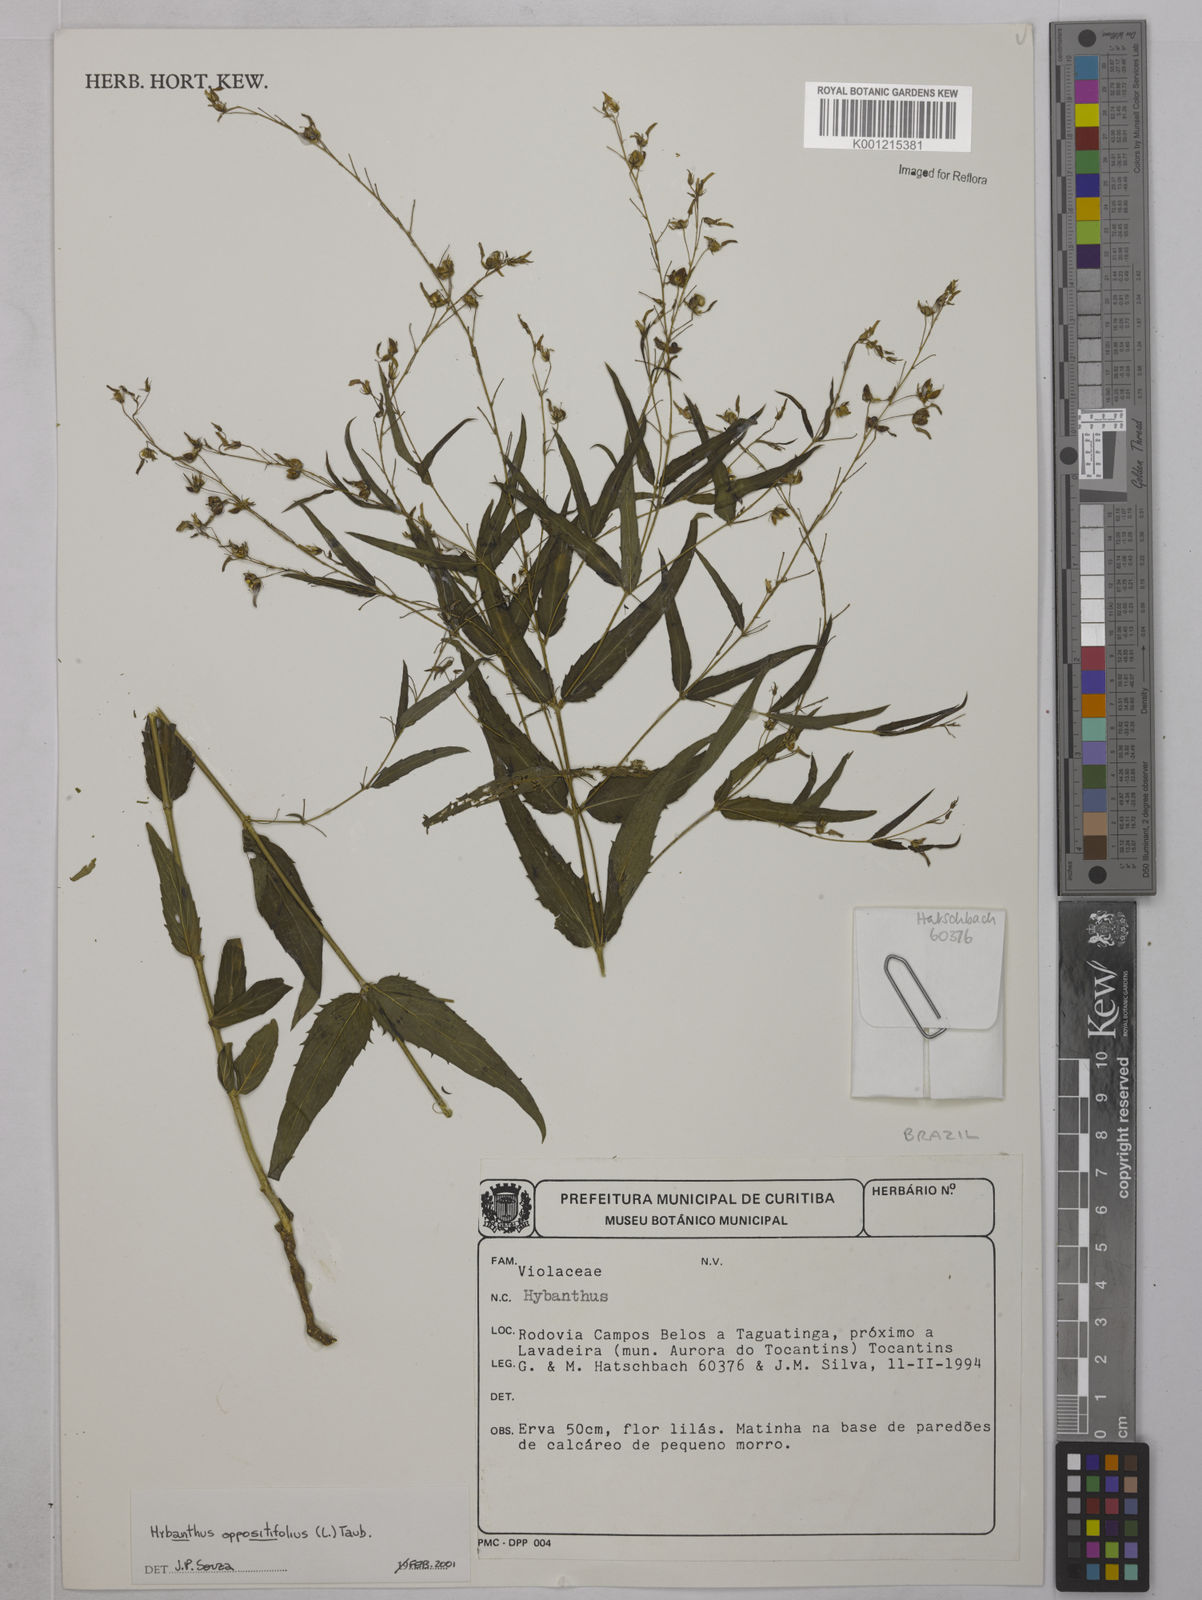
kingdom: Plantae
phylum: Tracheophyta
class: Magnoliopsida
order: Malpighiales
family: Violaceae
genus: Pombalia
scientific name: Pombalia oppositifolia
